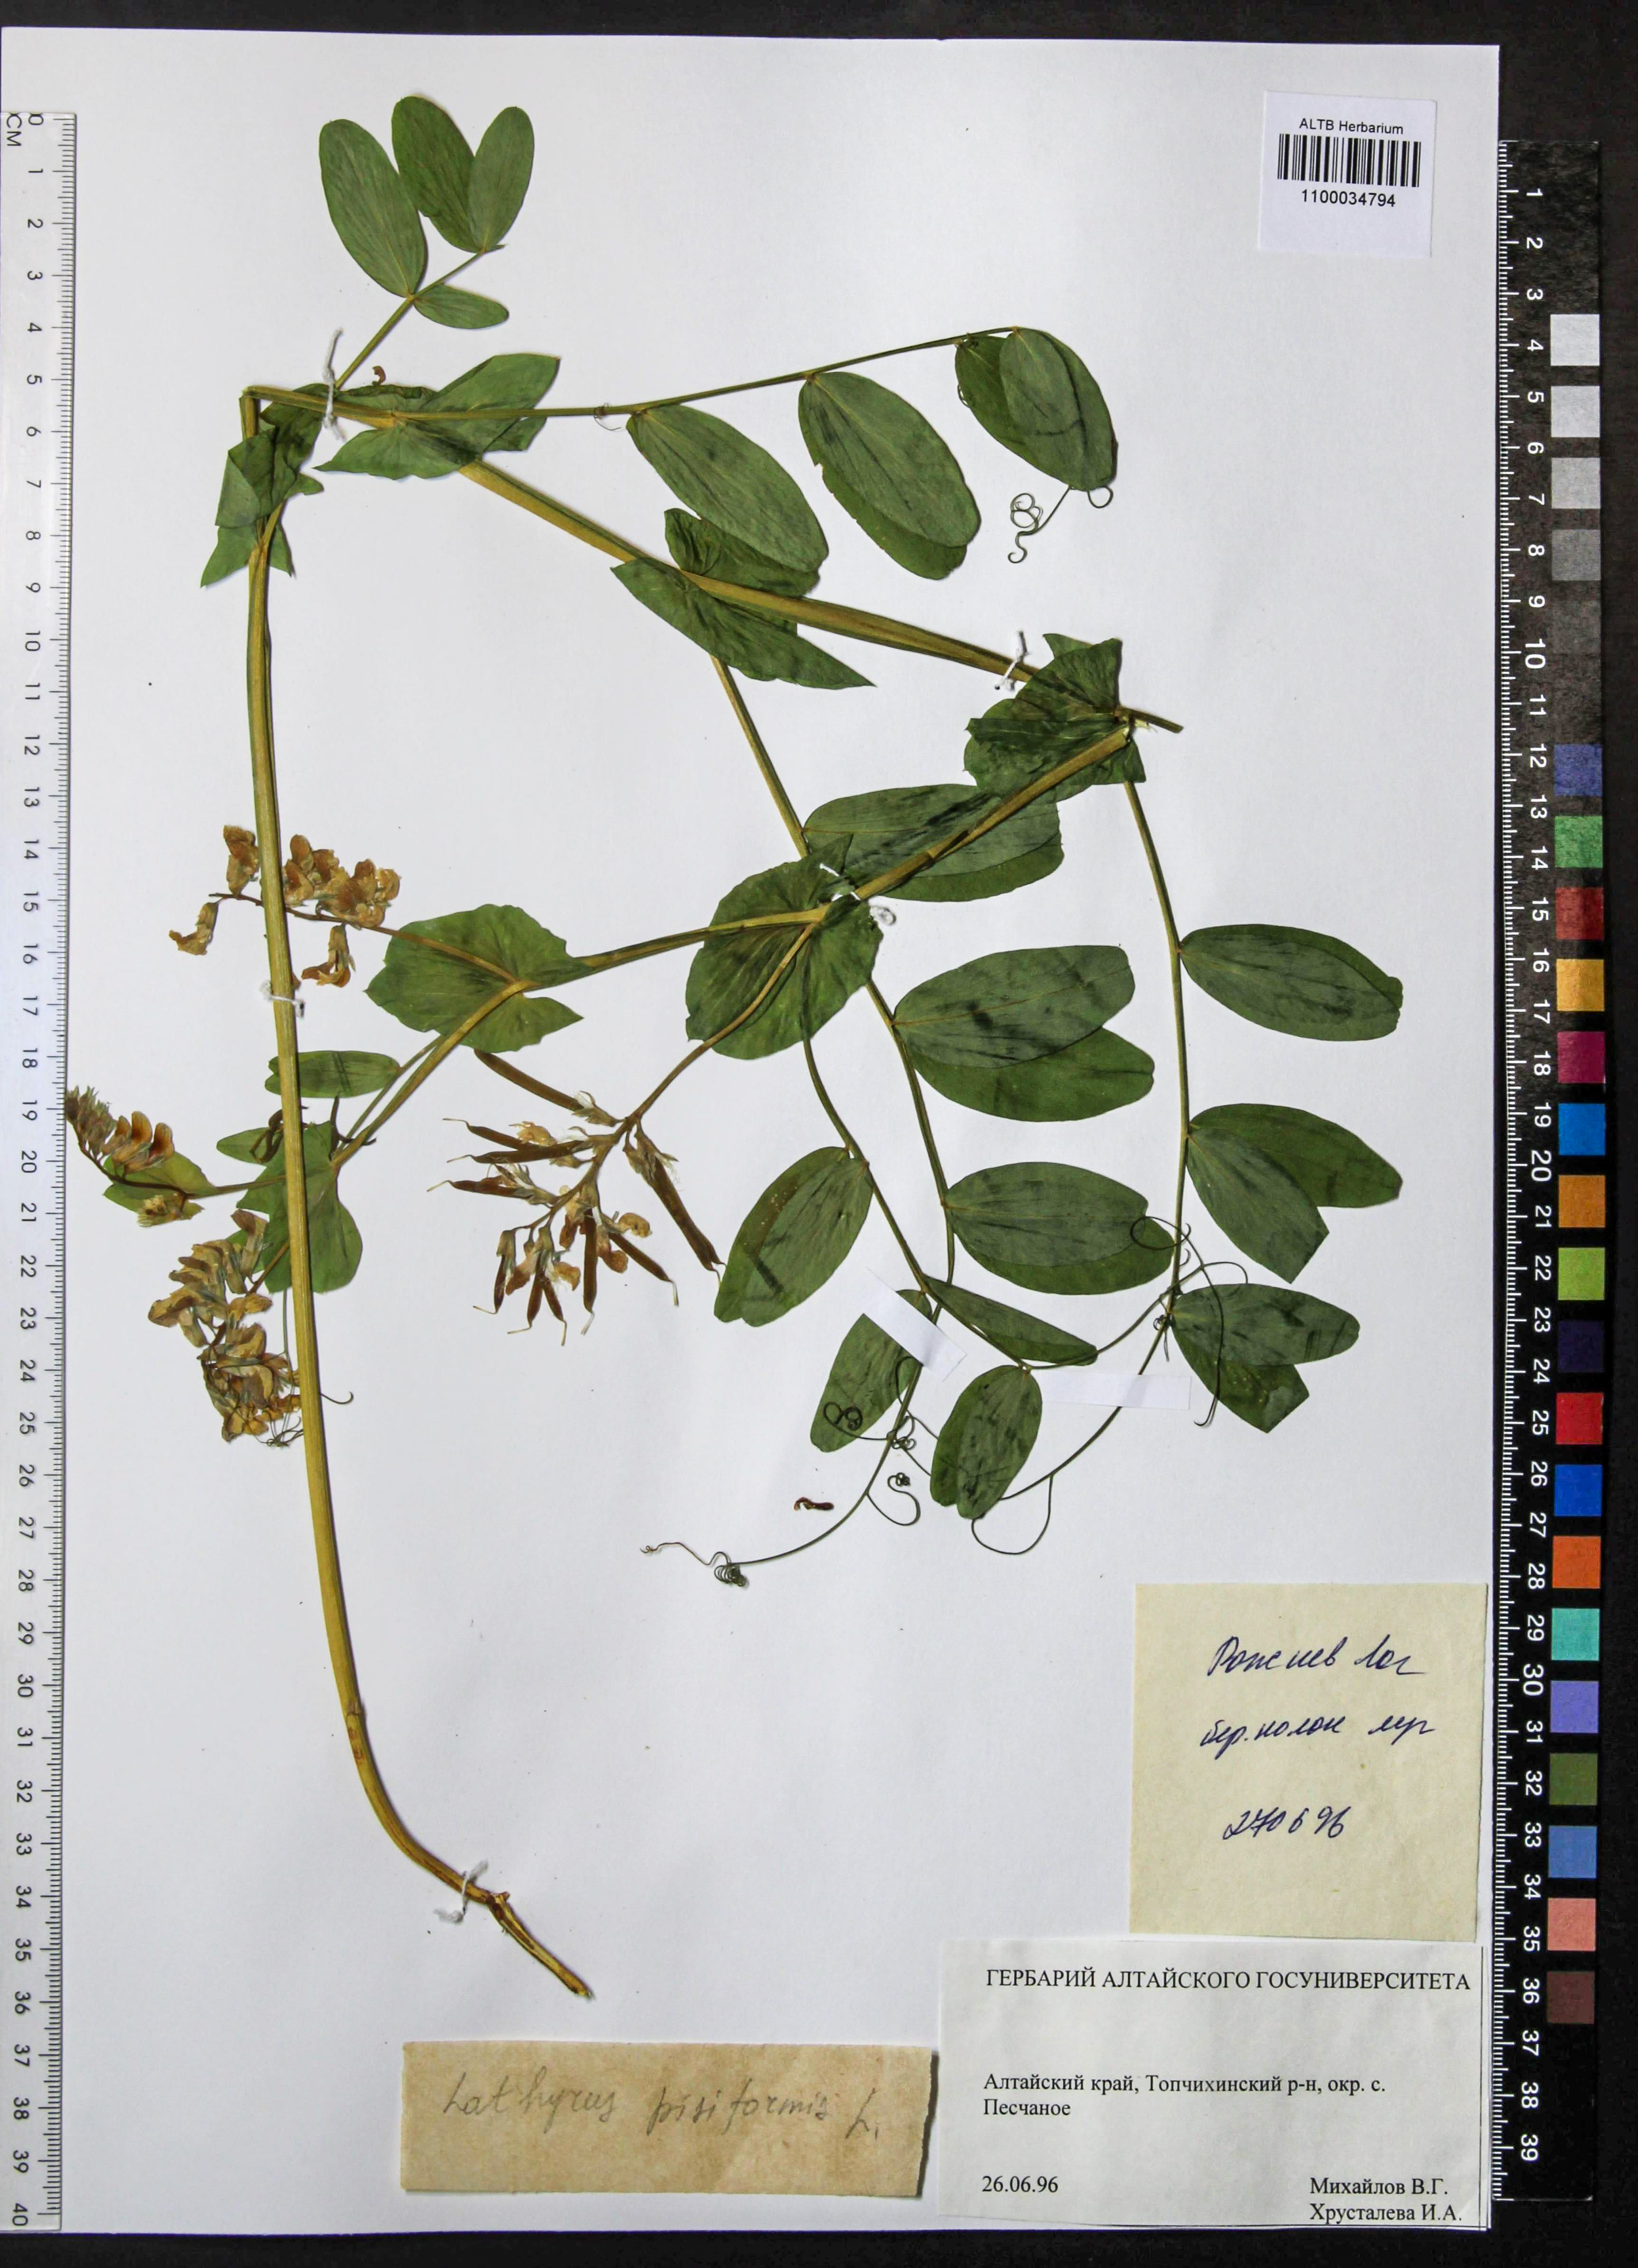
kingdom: Plantae
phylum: Tracheophyta
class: Magnoliopsida
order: Fabales
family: Fabaceae
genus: Lathyrus
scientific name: Lathyrus pisiformis
